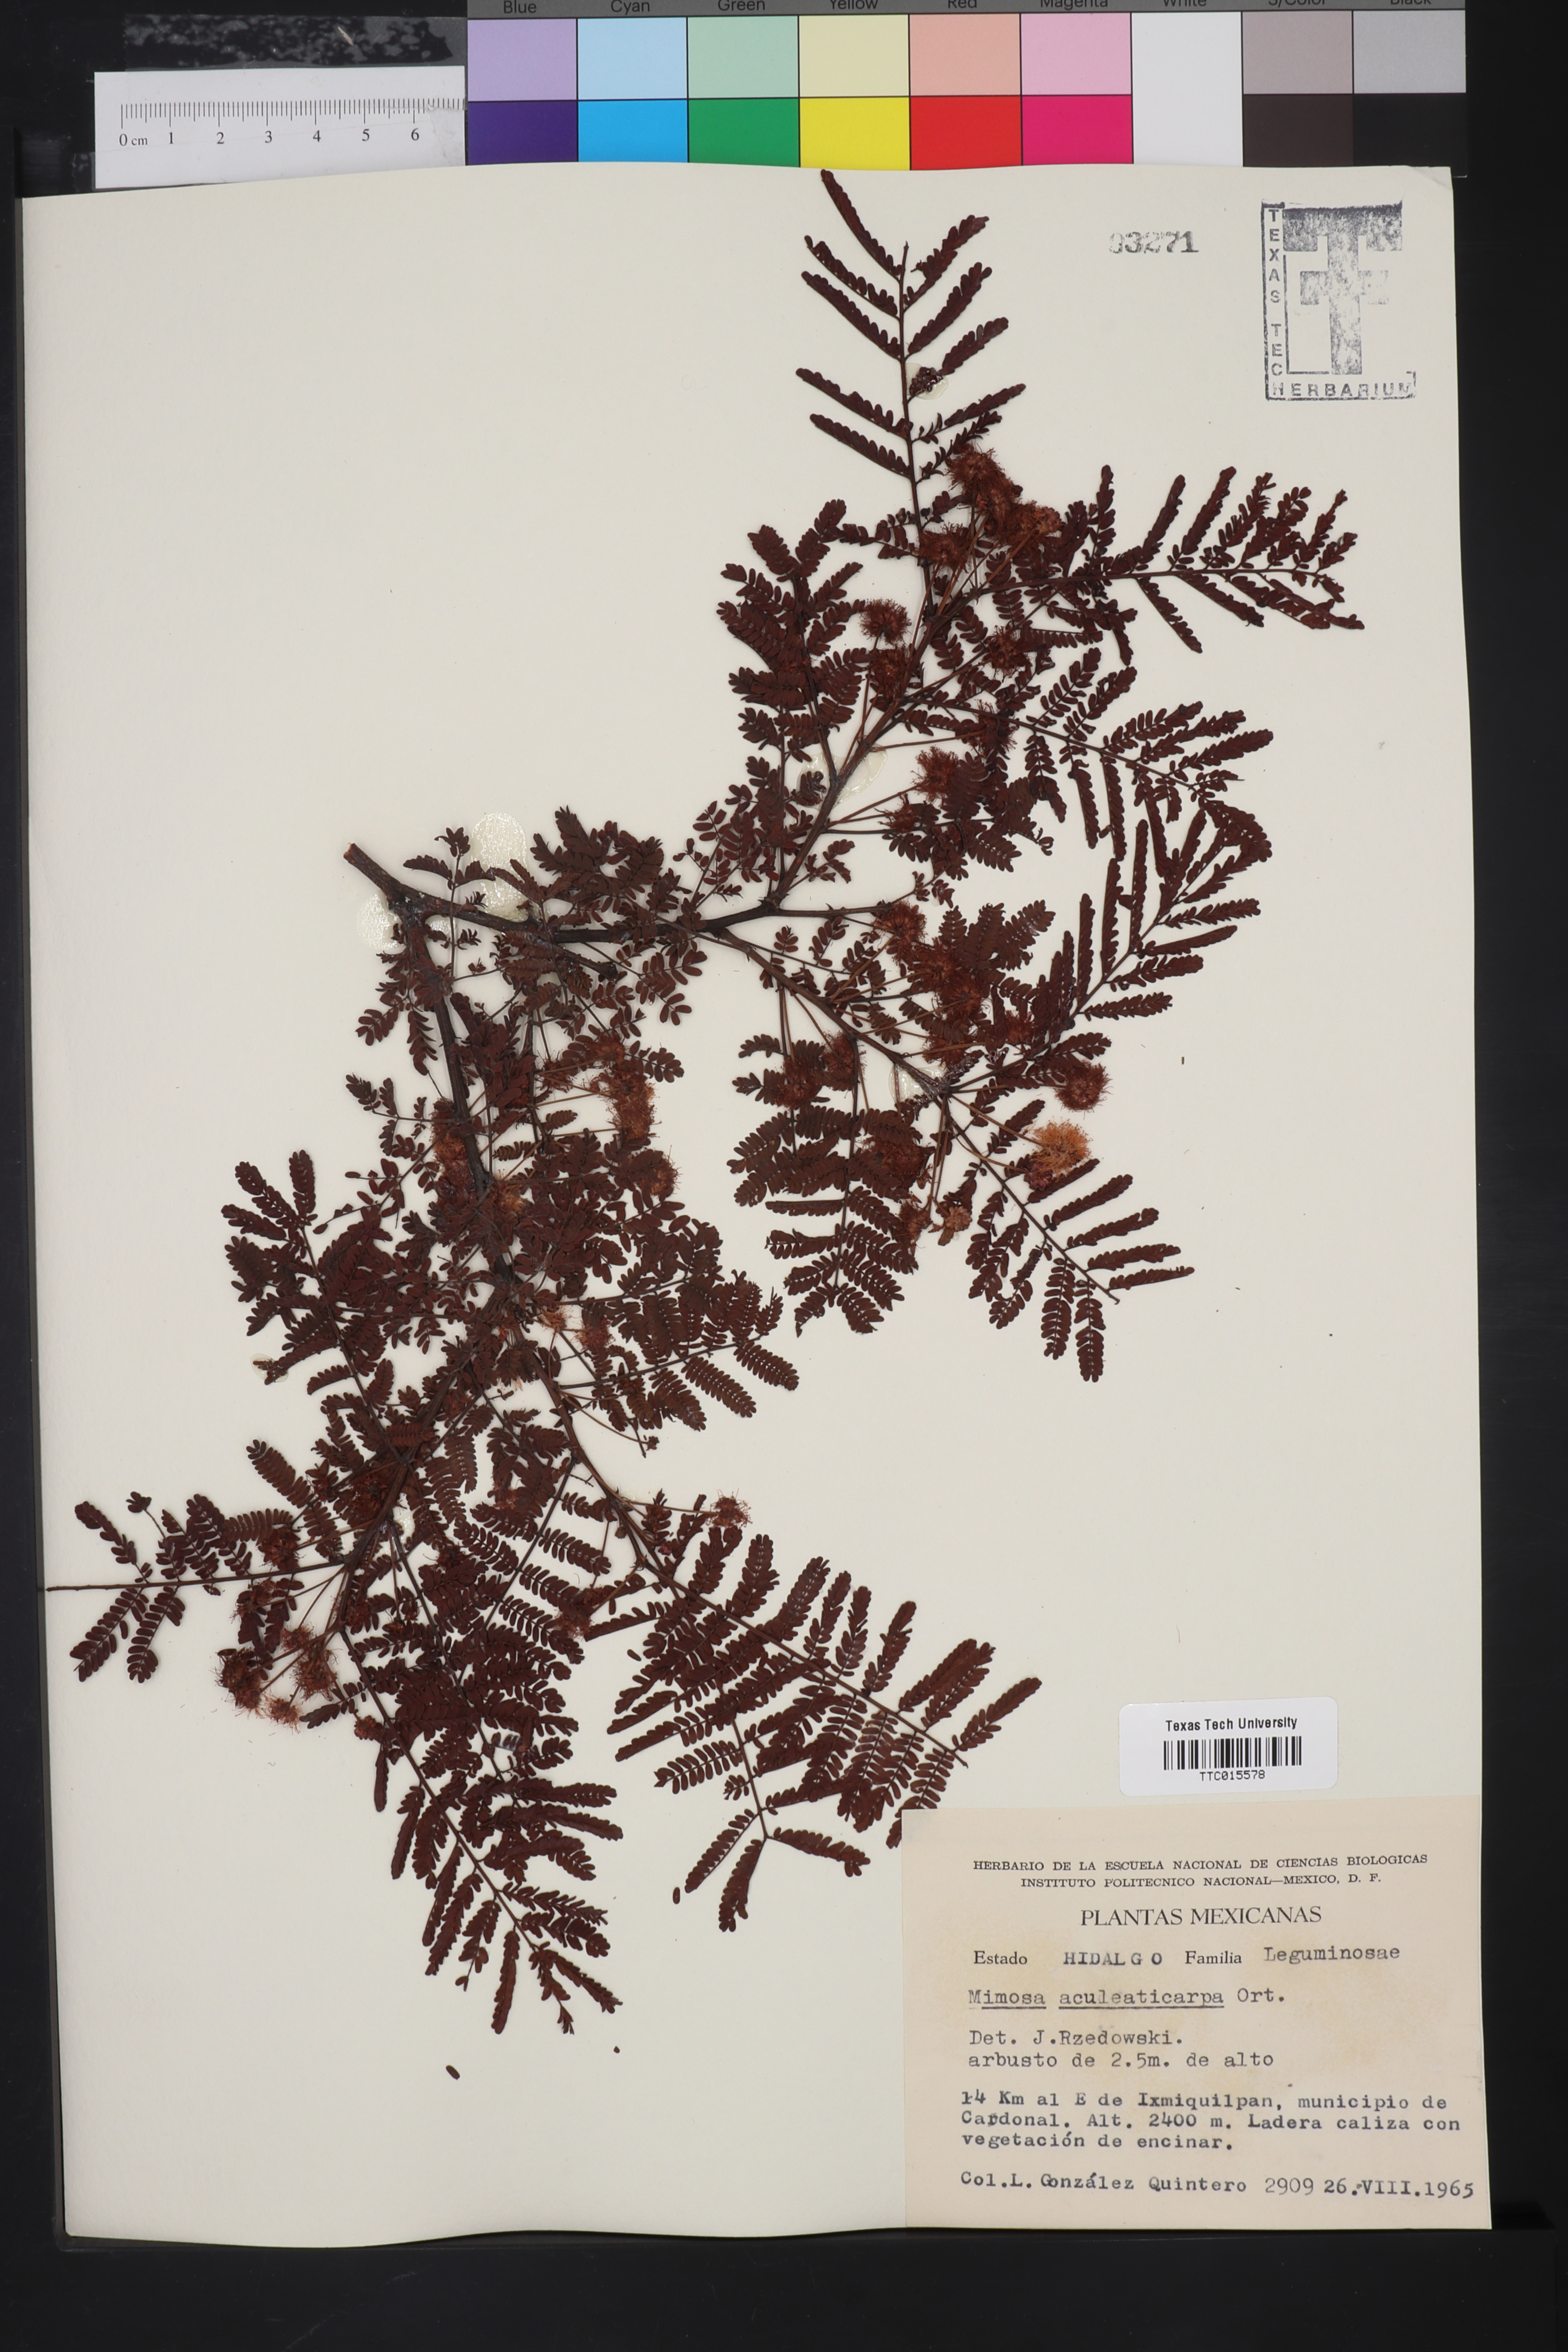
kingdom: Plantae
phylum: Tracheophyta
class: Magnoliopsida
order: Fabales
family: Fabaceae
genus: Mimosa
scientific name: Mimosa aculeaticarpa
